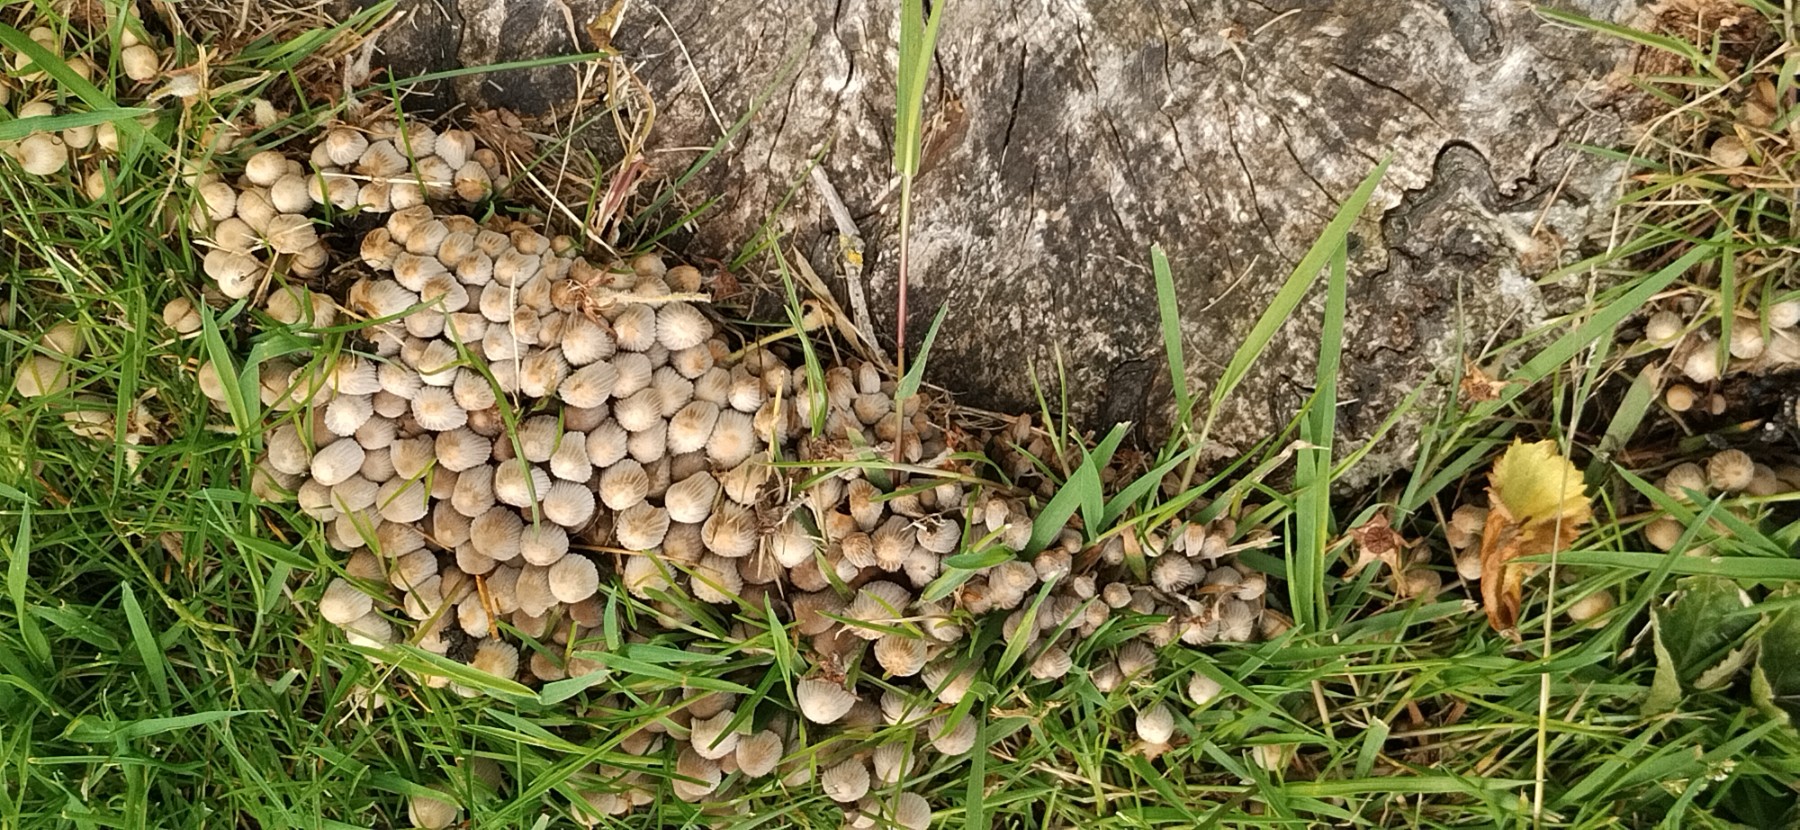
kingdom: Fungi
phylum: Basidiomycota
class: Agaricomycetes
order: Agaricales
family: Psathyrellaceae
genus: Coprinellus
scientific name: Coprinellus disseminatus
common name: bredsået blækhat
